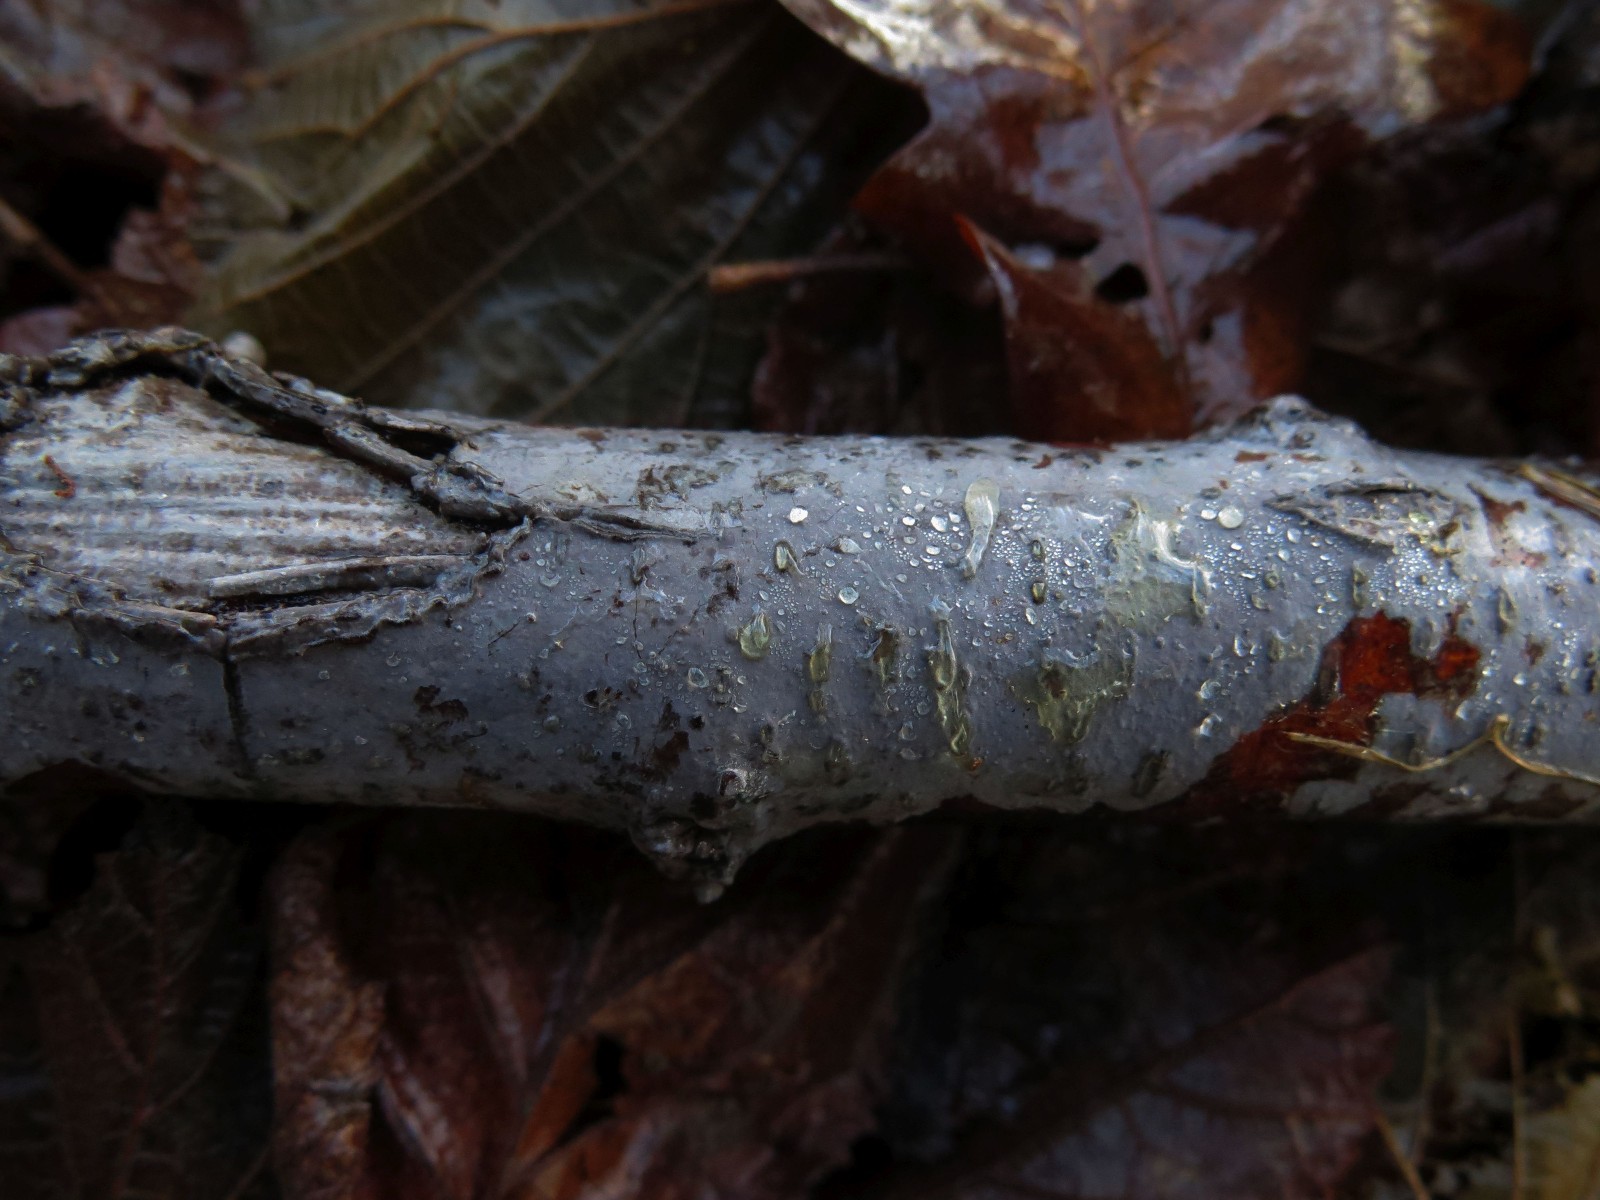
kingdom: Fungi
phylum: Basidiomycota
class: Agaricomycetes
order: Russulales
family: Peniophoraceae
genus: Peniophora
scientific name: Peniophora
